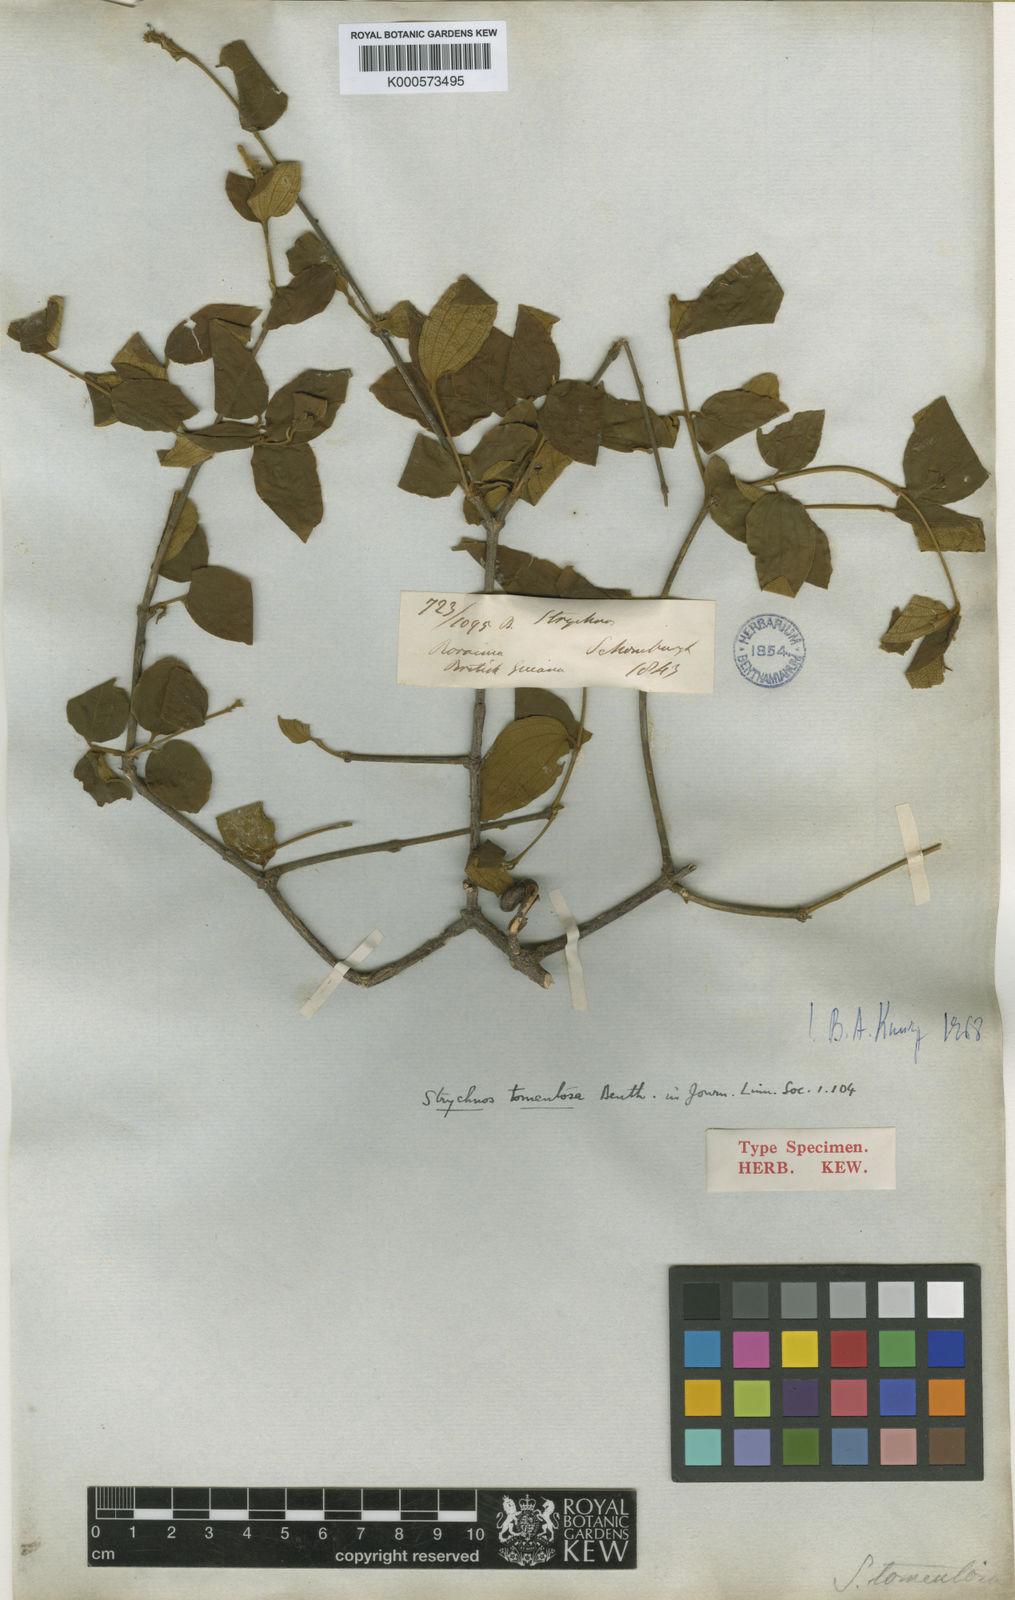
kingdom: Plantae
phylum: Tracheophyta
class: Magnoliopsida
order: Gentianales
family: Loganiaceae
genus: Strychnos
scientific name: Strychnos tomentosa
